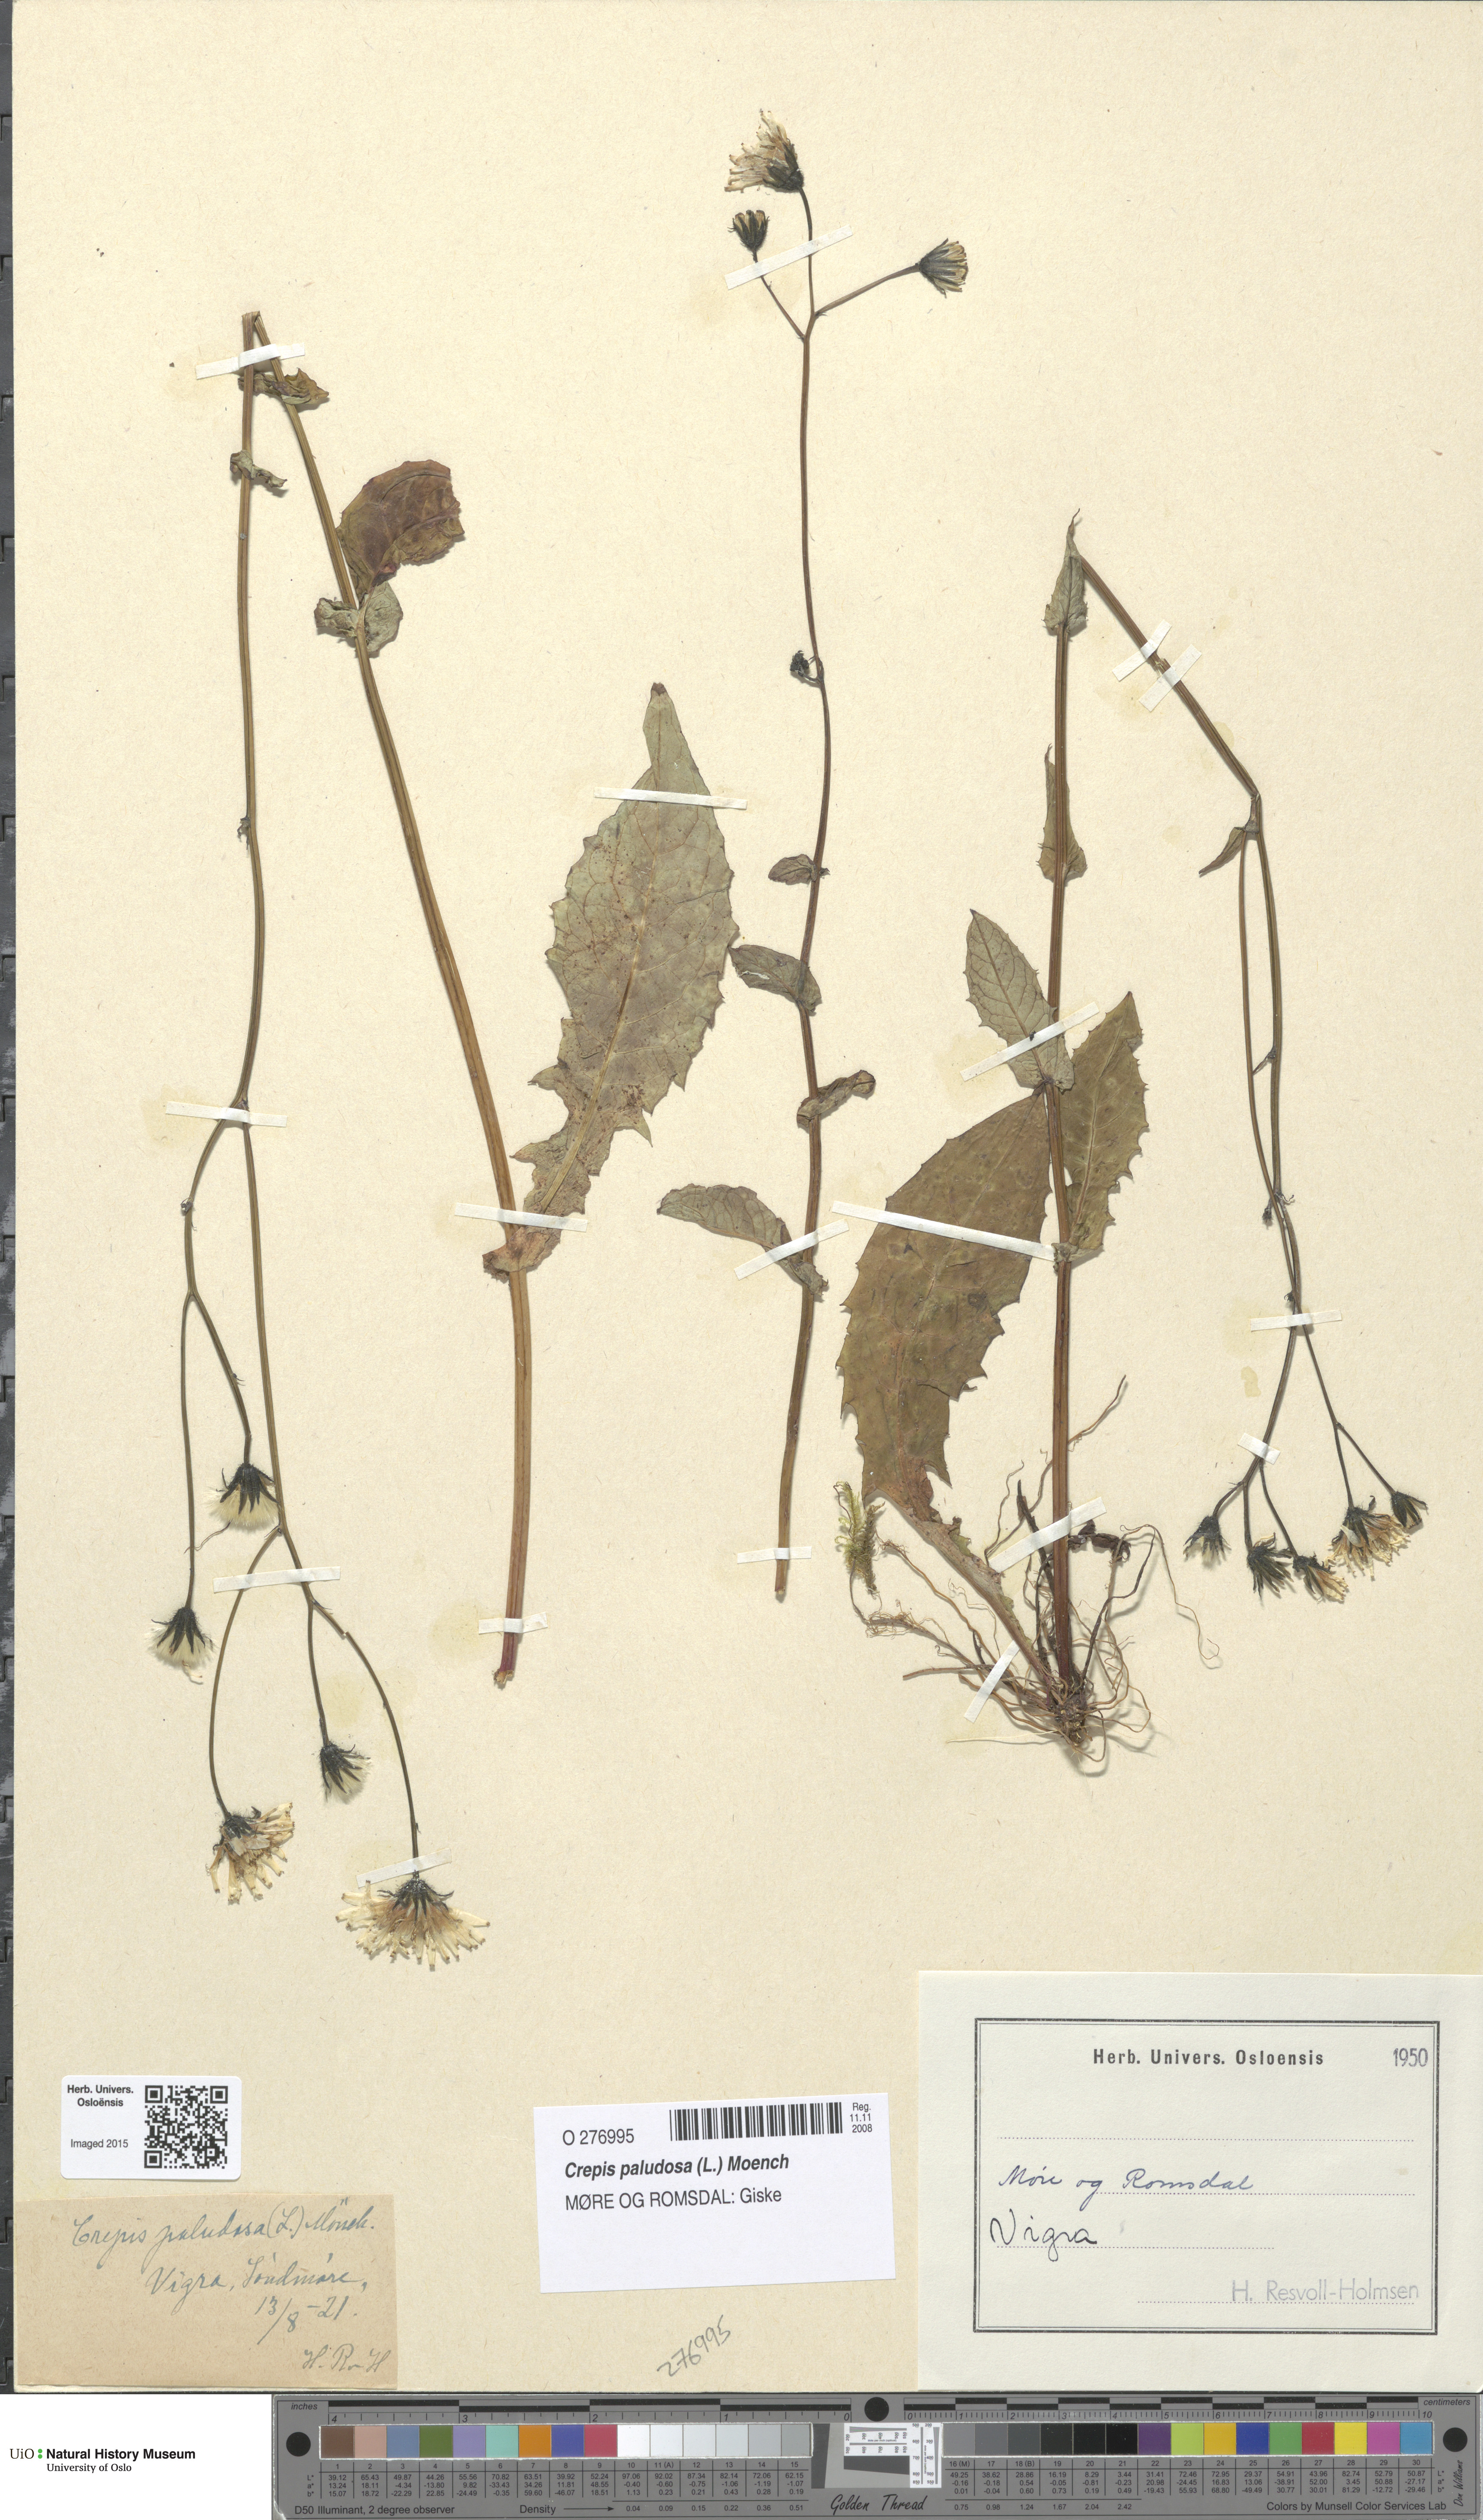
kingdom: Plantae
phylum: Tracheophyta
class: Magnoliopsida
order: Asterales
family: Asteraceae
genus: Crepis
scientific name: Crepis paludosa
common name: Marsh hawk's-beard
